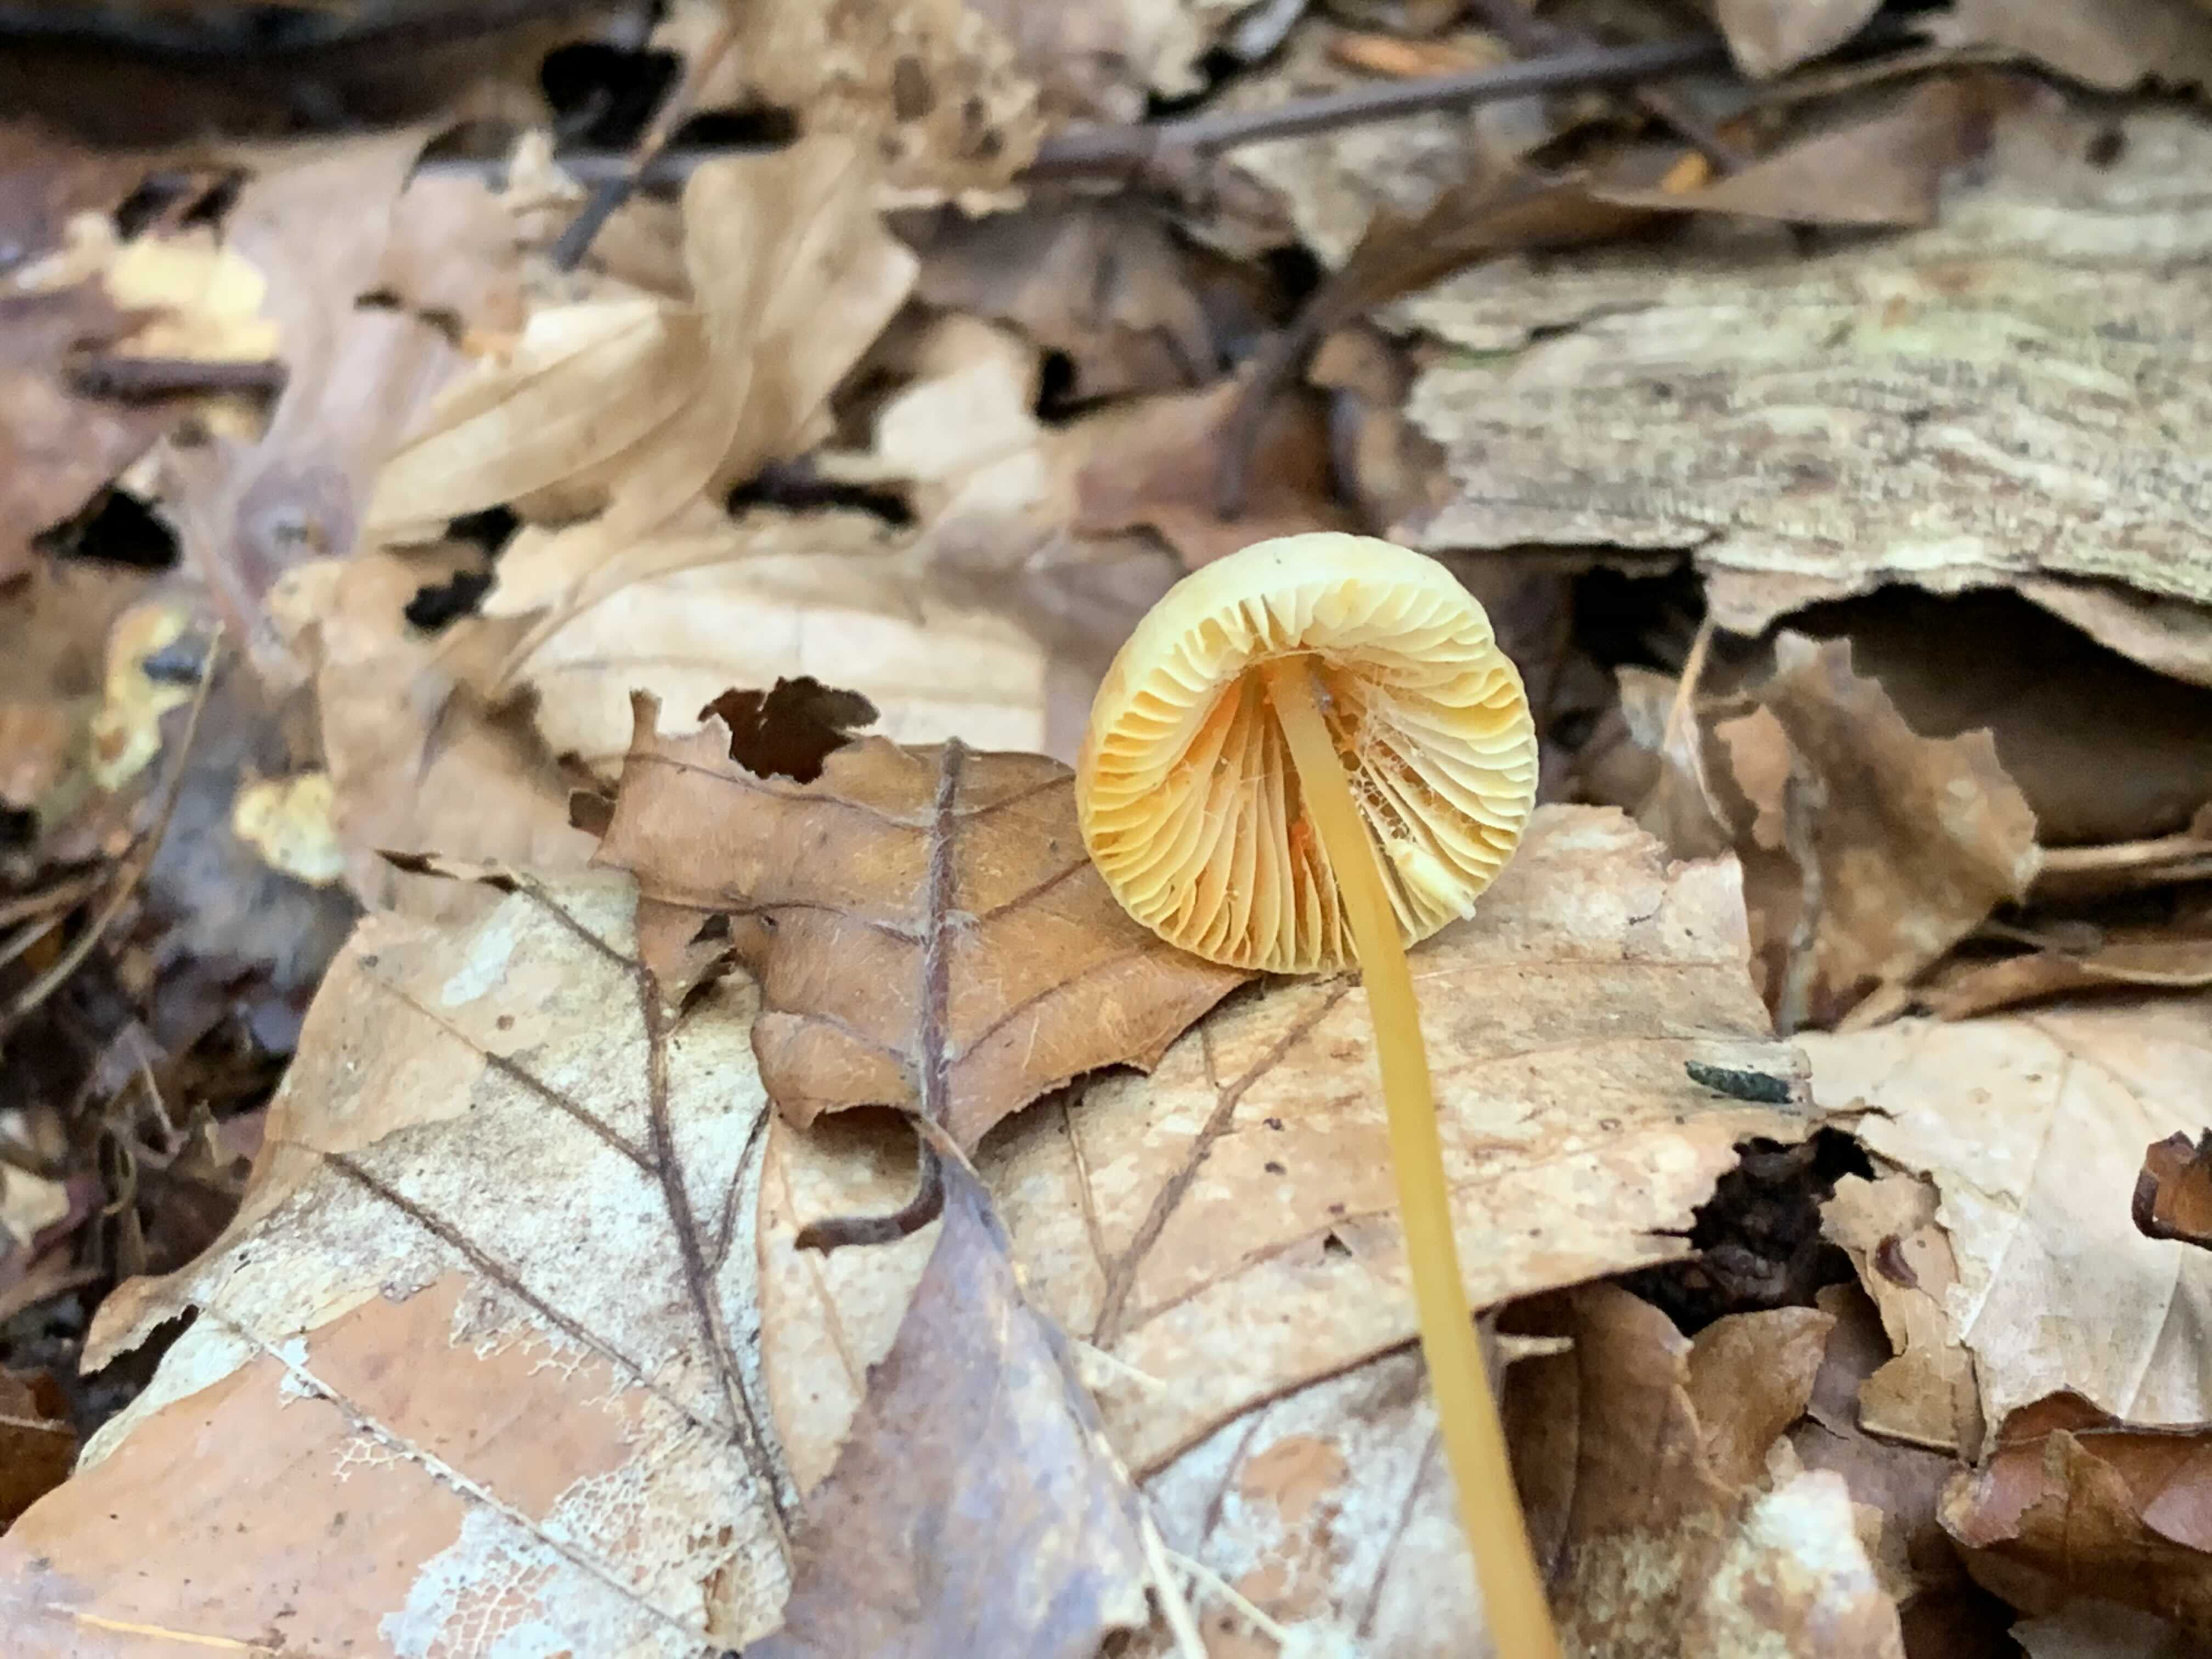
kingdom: Fungi
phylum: Basidiomycota
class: Agaricomycetes
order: Agaricales
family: Mycenaceae
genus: Mycena
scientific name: Mycena crocata
